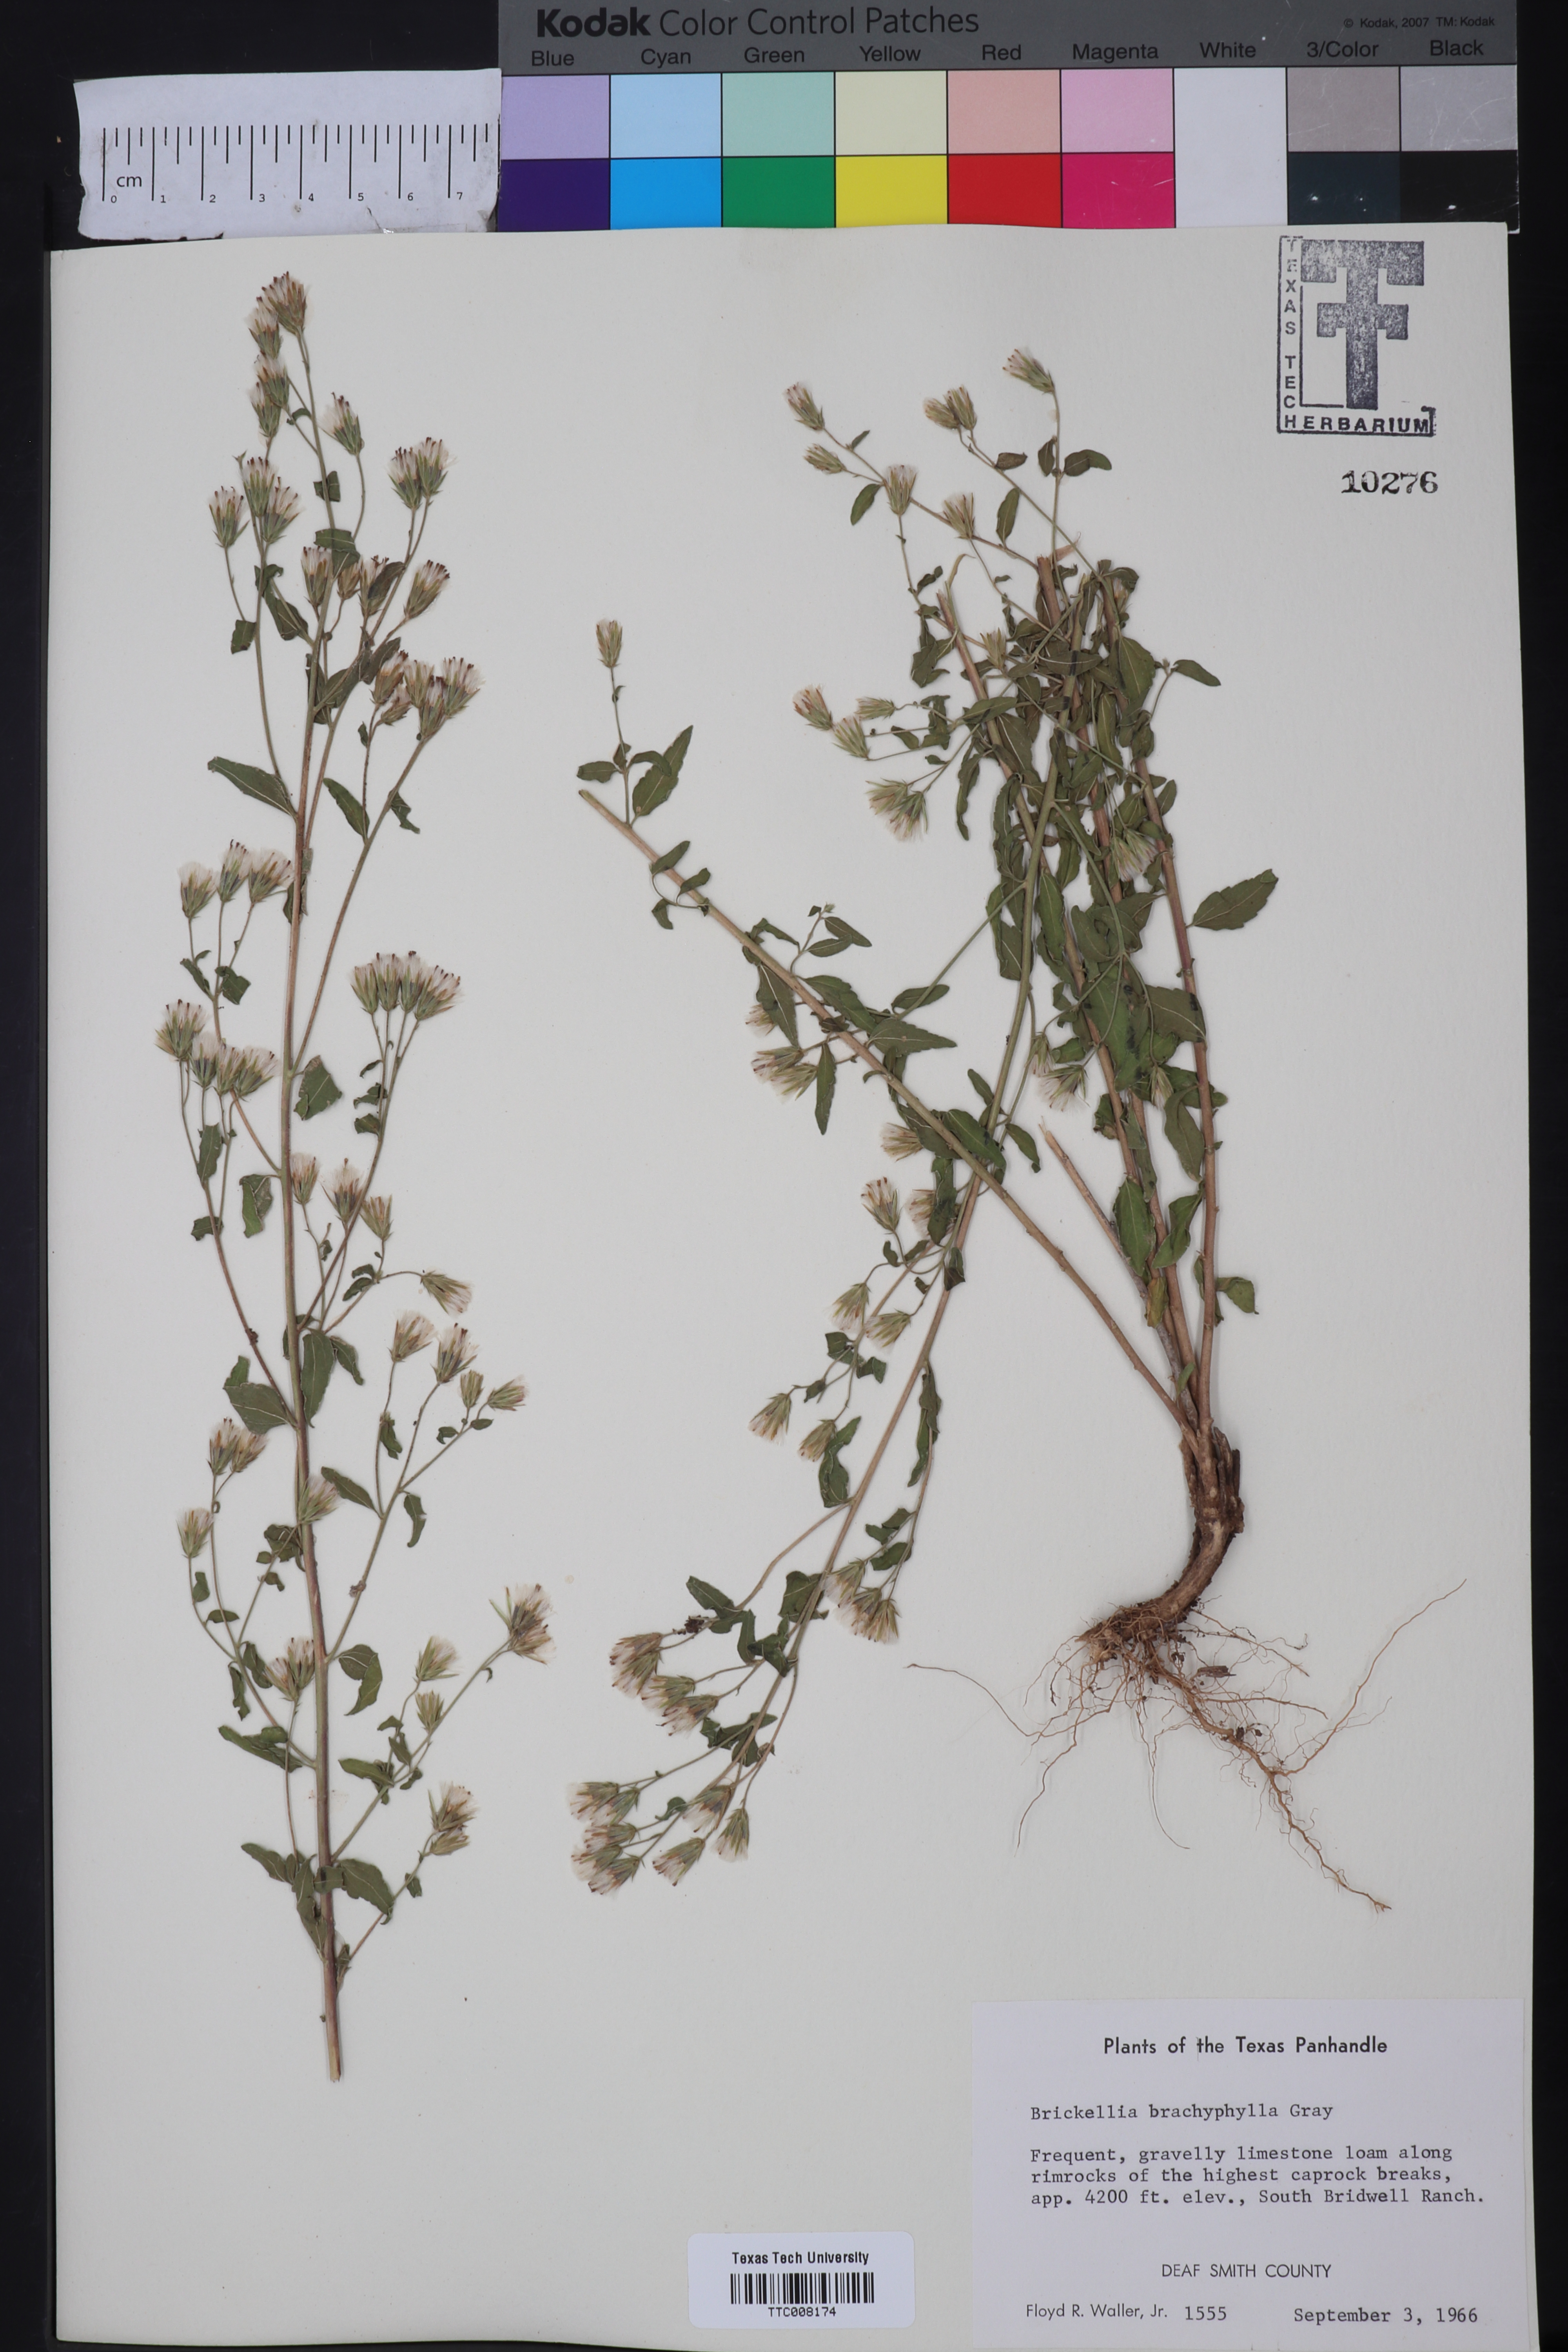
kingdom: Plantae
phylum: Tracheophyta
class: Magnoliopsida
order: Asterales
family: Asteraceae
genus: Brickellia
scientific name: Brickellia brachyphylla
